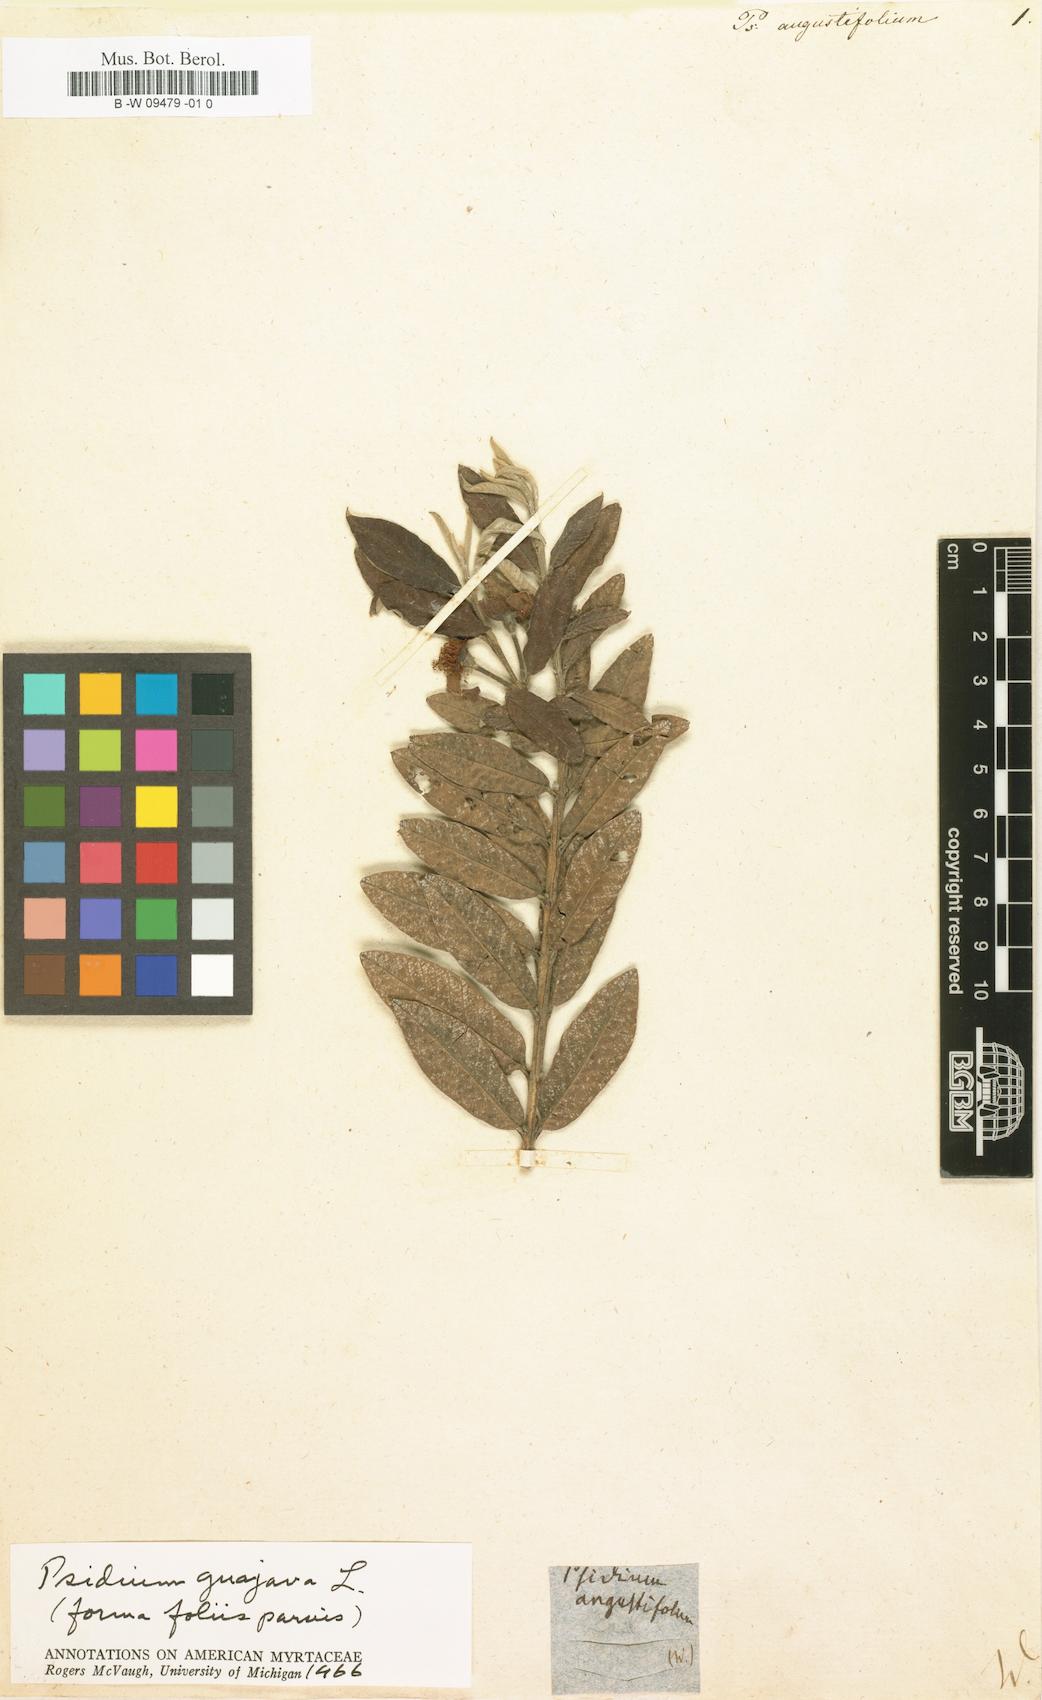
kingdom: Plantae
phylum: Tracheophyta
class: Magnoliopsida
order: Myrtales
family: Myrtaceae
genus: Psidium
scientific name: Psidium guajava
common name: Guava
